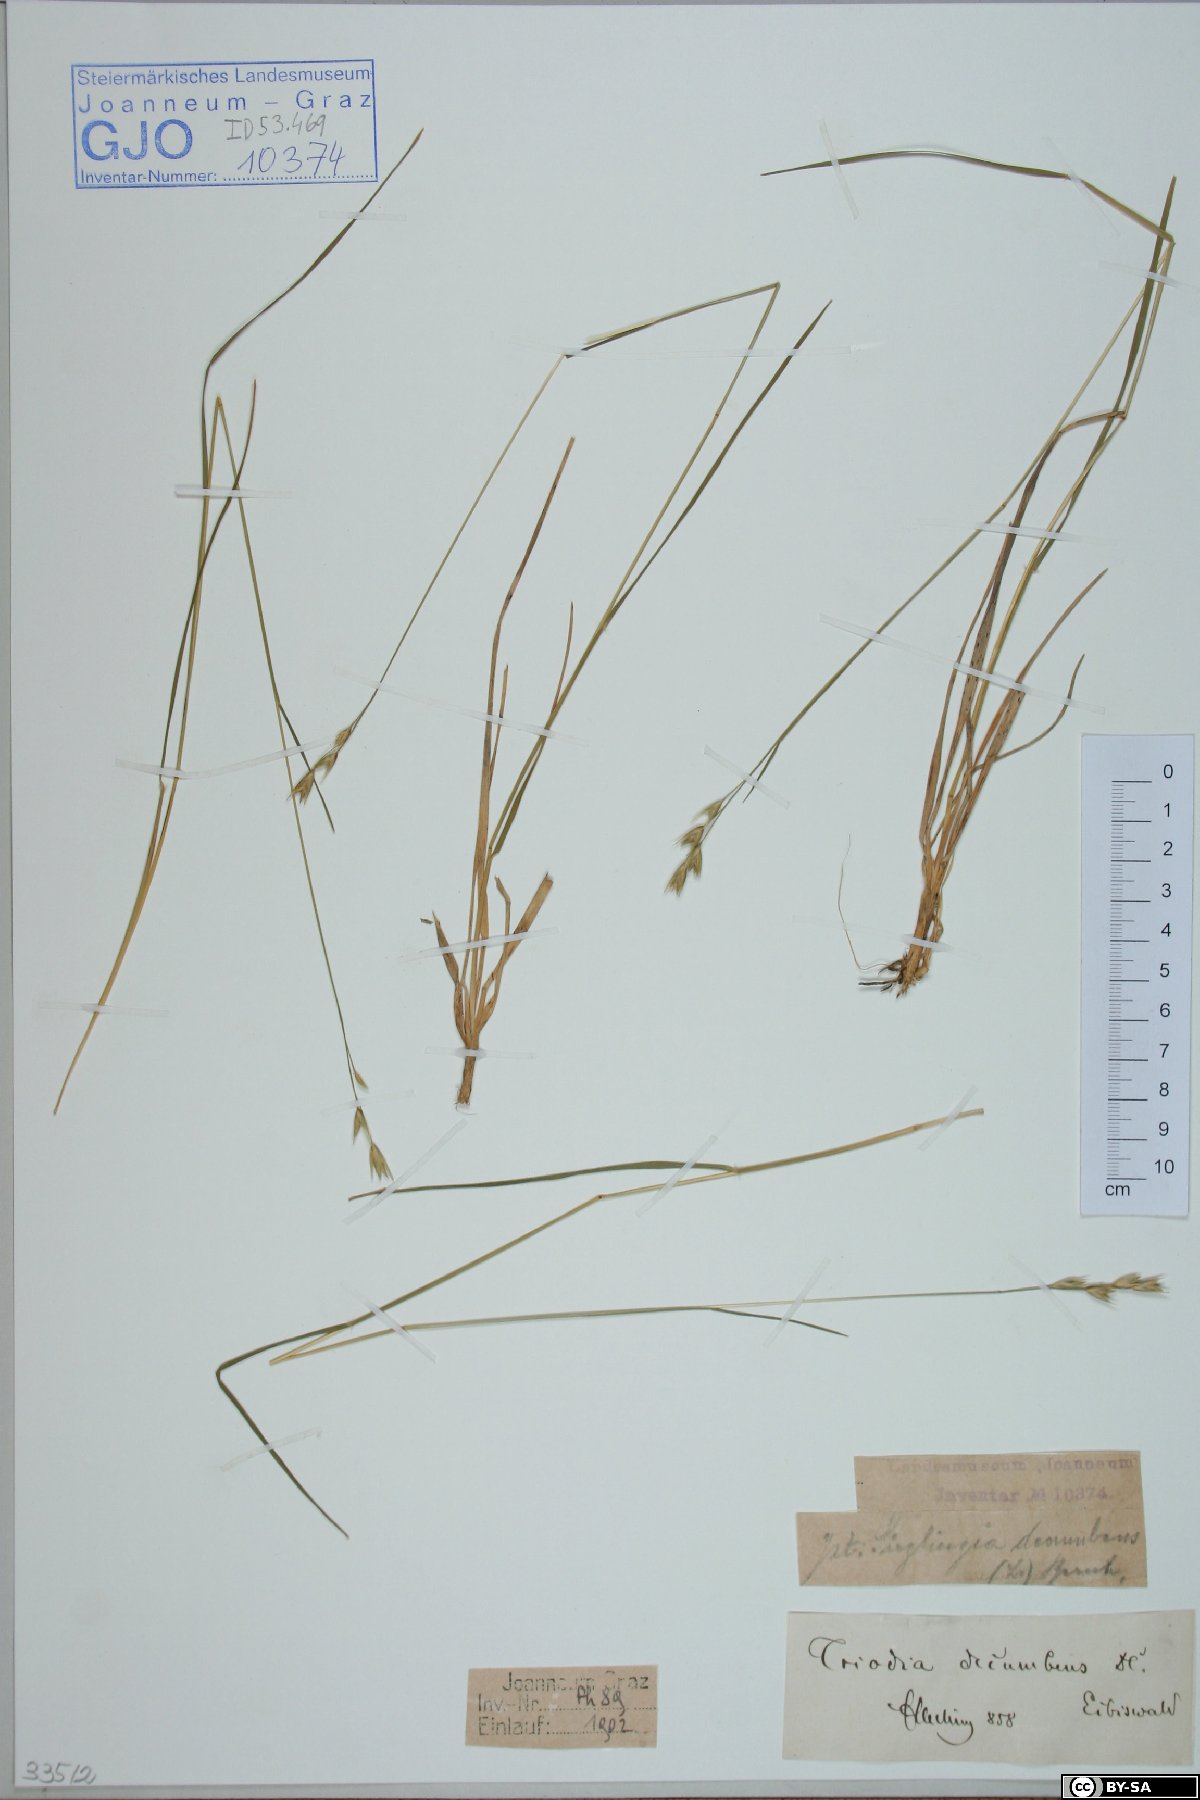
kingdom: Plantae
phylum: Tracheophyta
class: Liliopsida
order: Poales
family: Poaceae
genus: Danthonia
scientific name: Danthonia decumbens
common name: Common heathgrass
